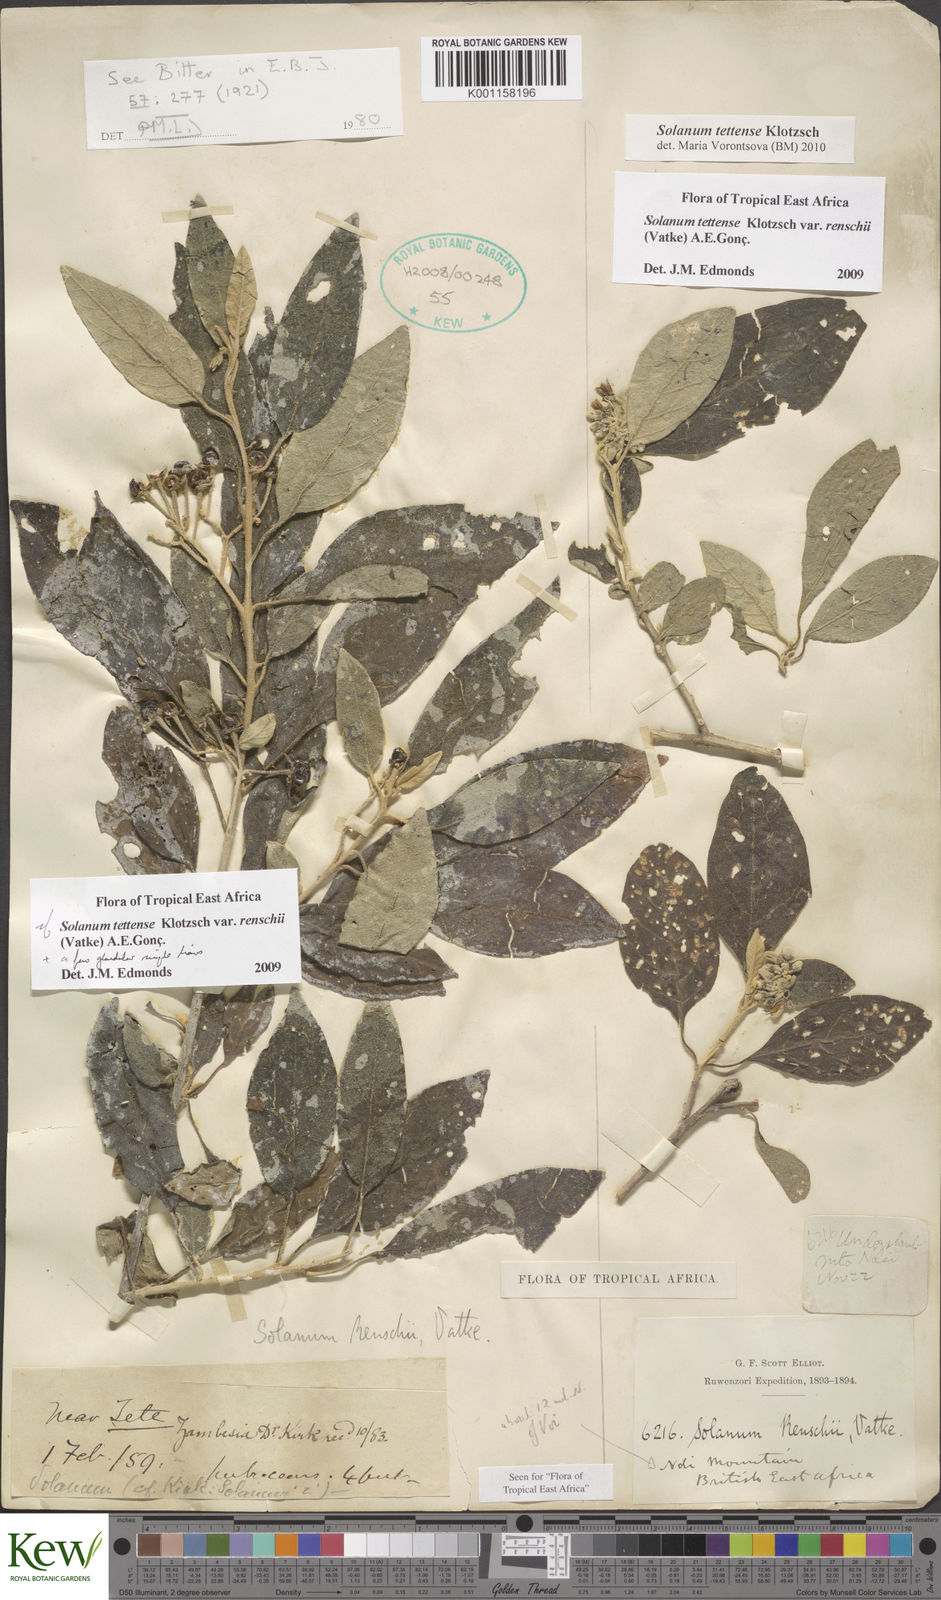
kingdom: Plantae
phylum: Tracheophyta
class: Magnoliopsida
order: Solanales
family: Solanaceae
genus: Solanum
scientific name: Solanum tettense
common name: Mozambique bitter apple
